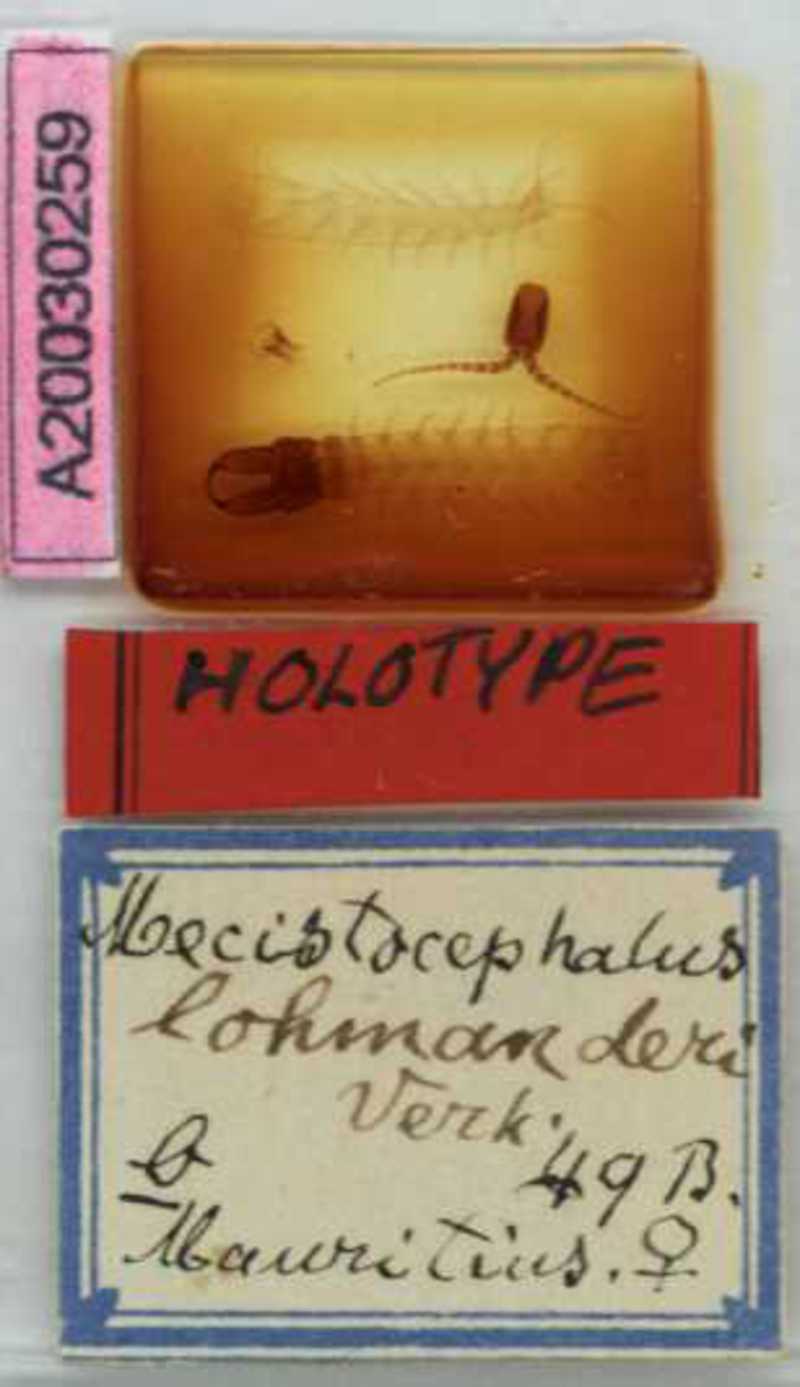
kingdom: Animalia
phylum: Arthropoda
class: Chilopoda
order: Geophilomorpha
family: Mecistocephalidae
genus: Mecistocephalus
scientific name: Mecistocephalus lohmanderi
